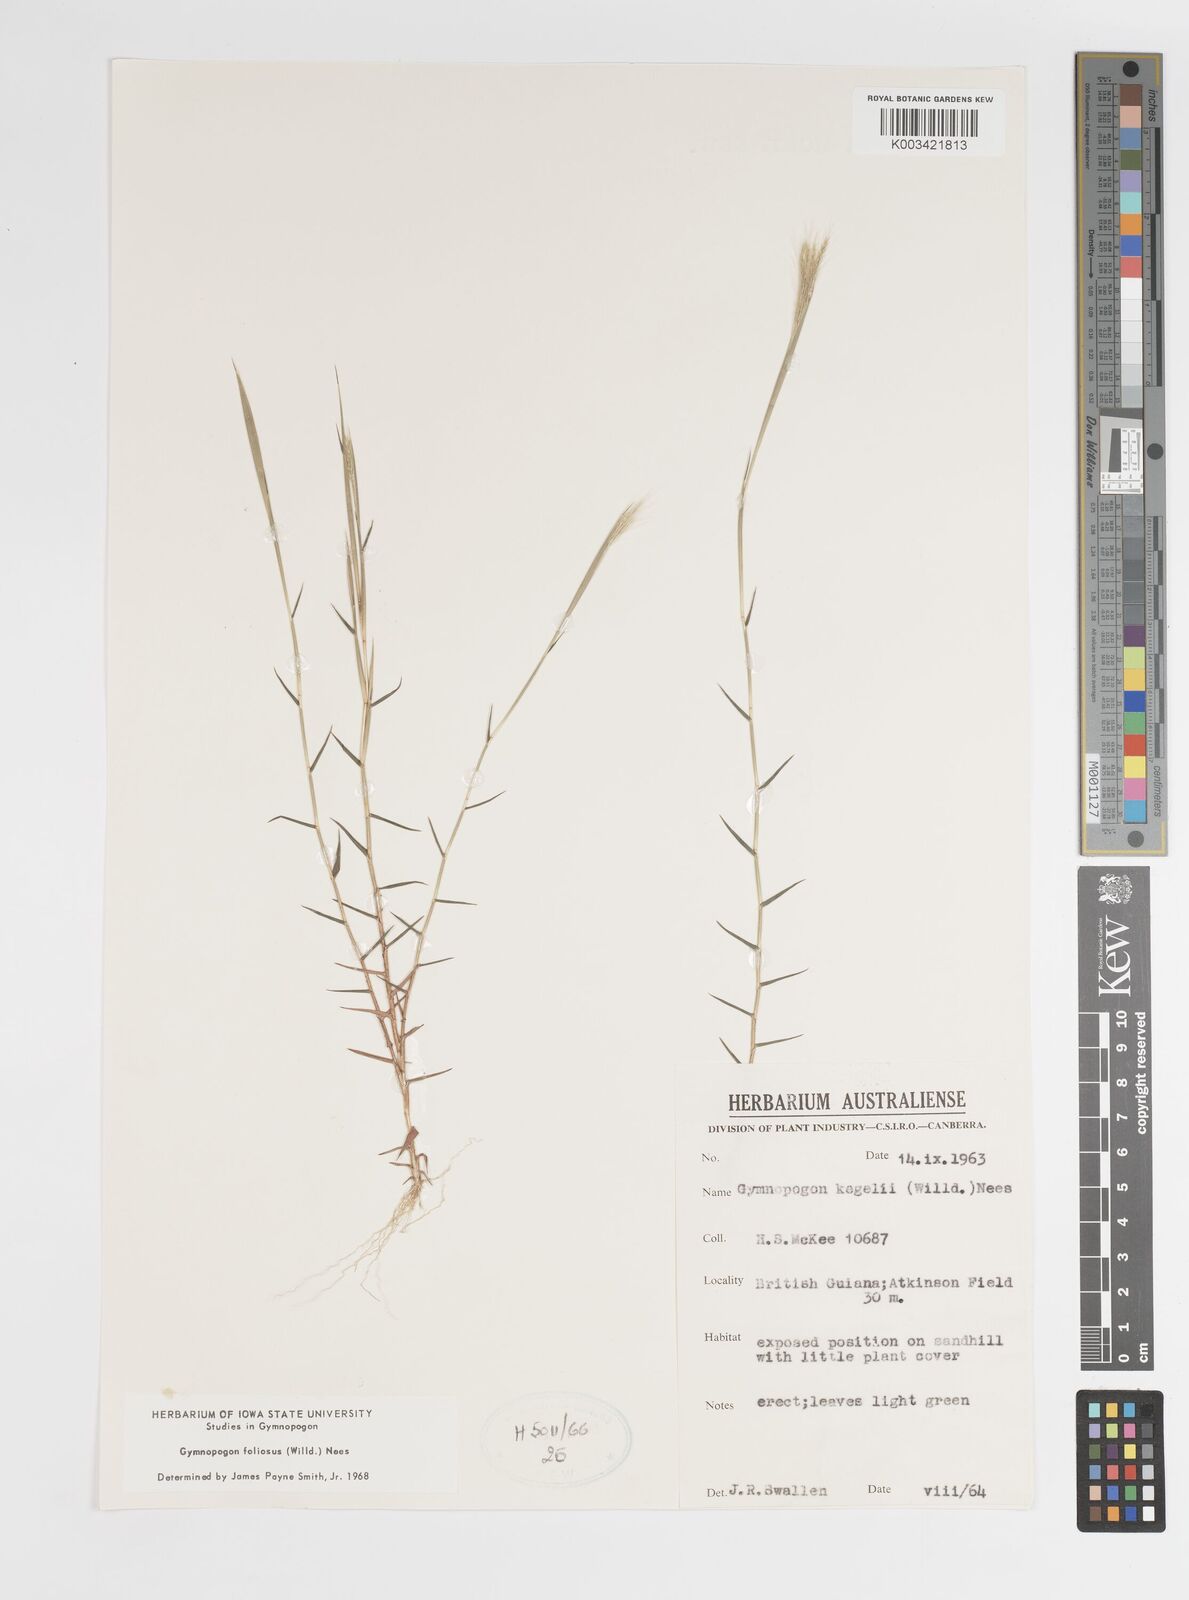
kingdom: Plantae
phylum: Tracheophyta
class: Liliopsida
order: Poales
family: Poaceae
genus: Gymnopogon
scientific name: Gymnopogon foliosus
